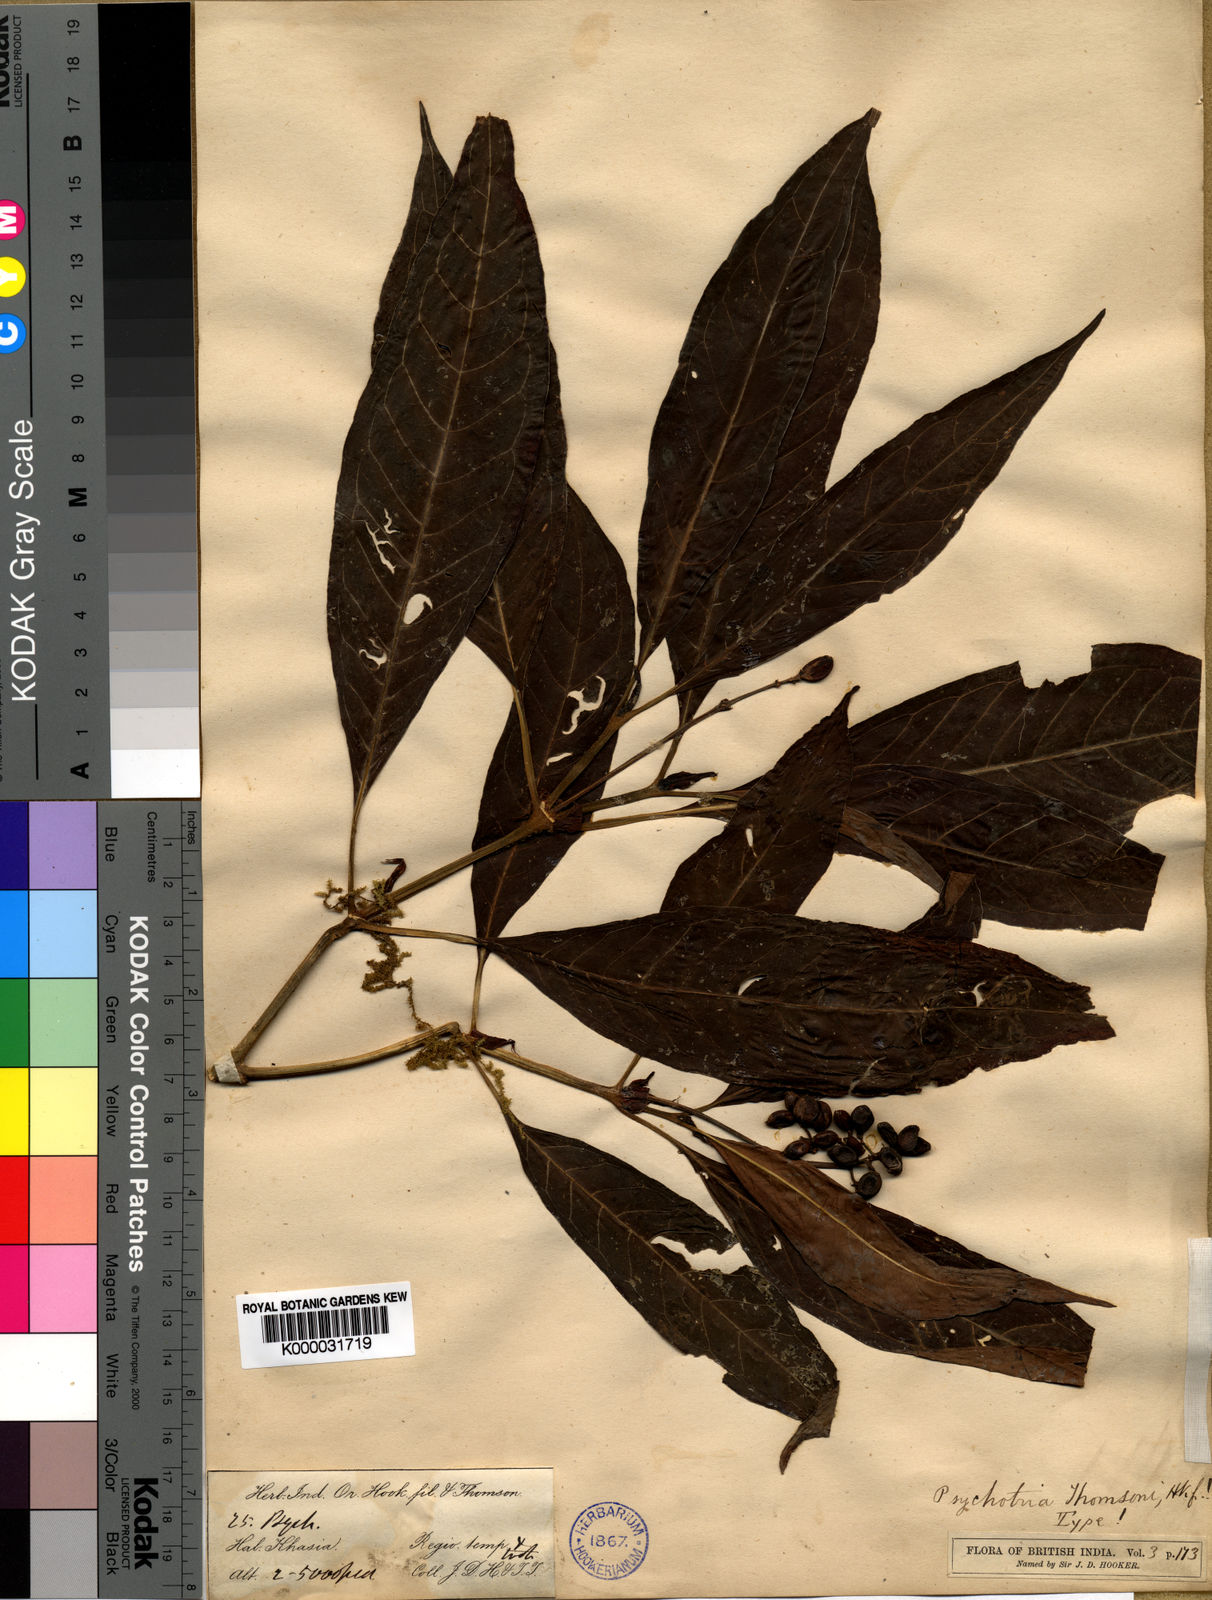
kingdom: Plantae
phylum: Tracheophyta
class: Magnoliopsida
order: Gentianales
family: Rubiaceae
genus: Psychotria
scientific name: Psychotria thomsonii
